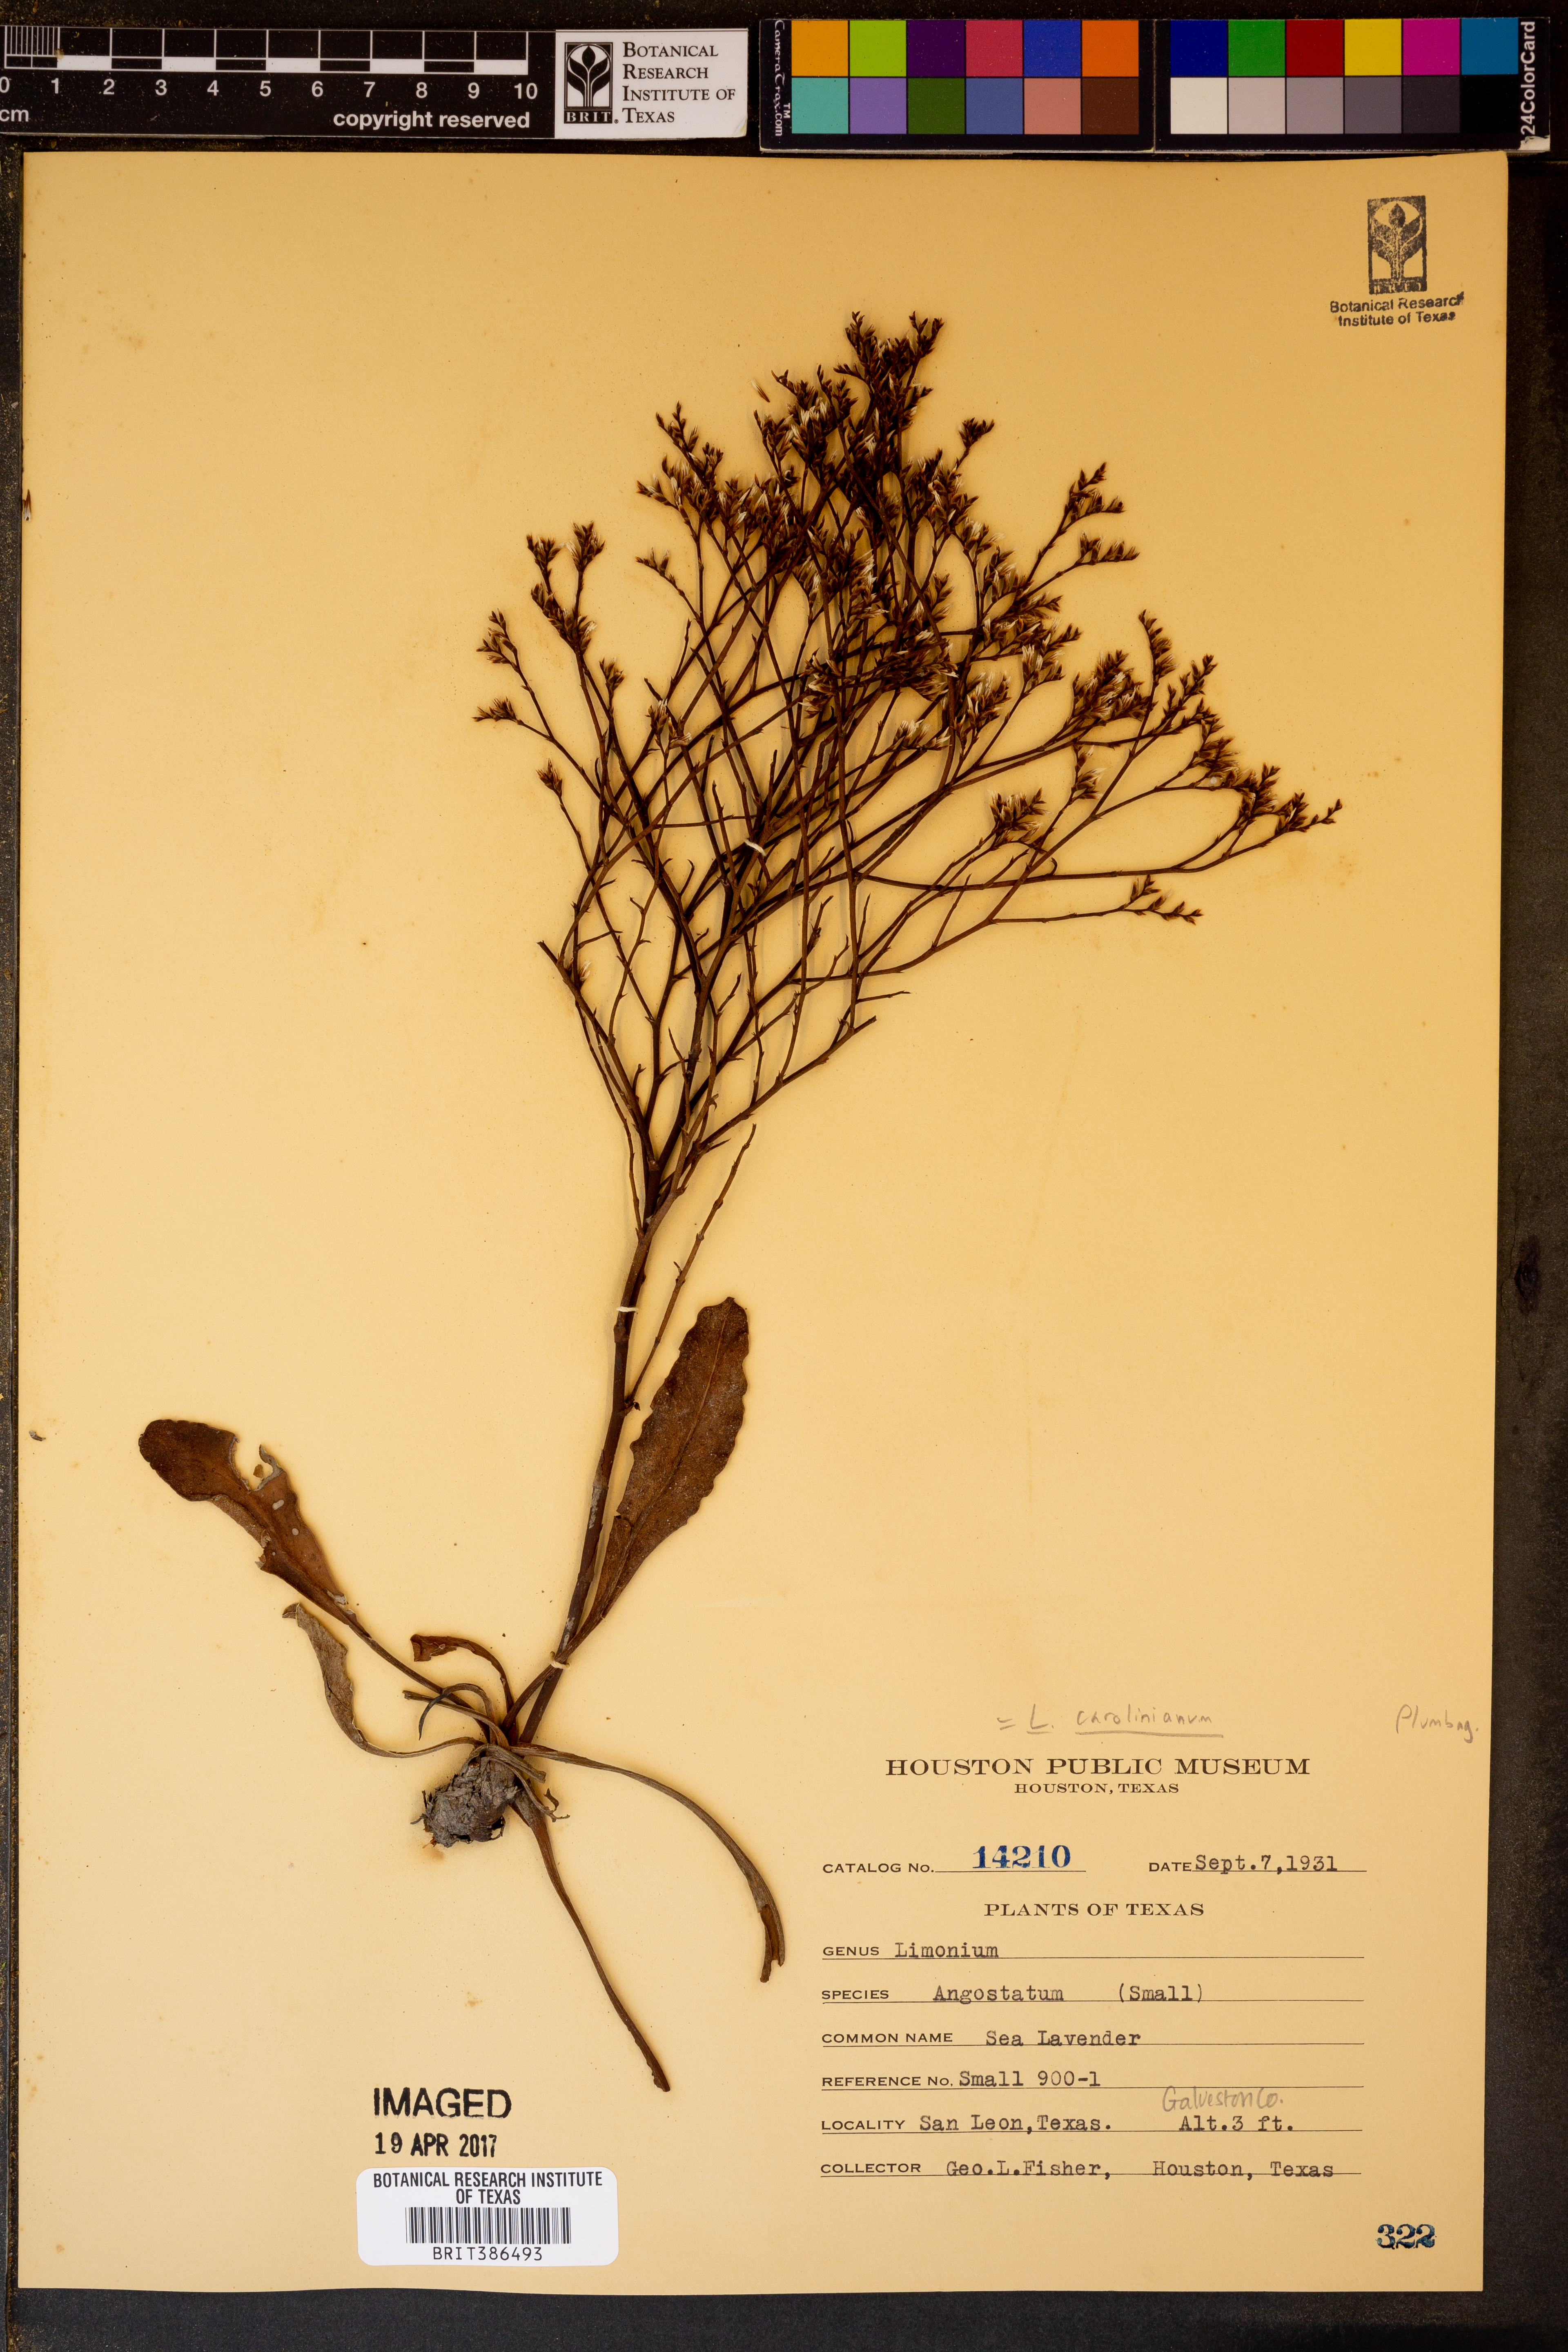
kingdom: Plantae
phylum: Tracheophyta
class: Magnoliopsida
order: Caryophyllales
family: Plumbaginaceae
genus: Limonium
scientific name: Limonium carolinianum
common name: Carolina sea lavender
